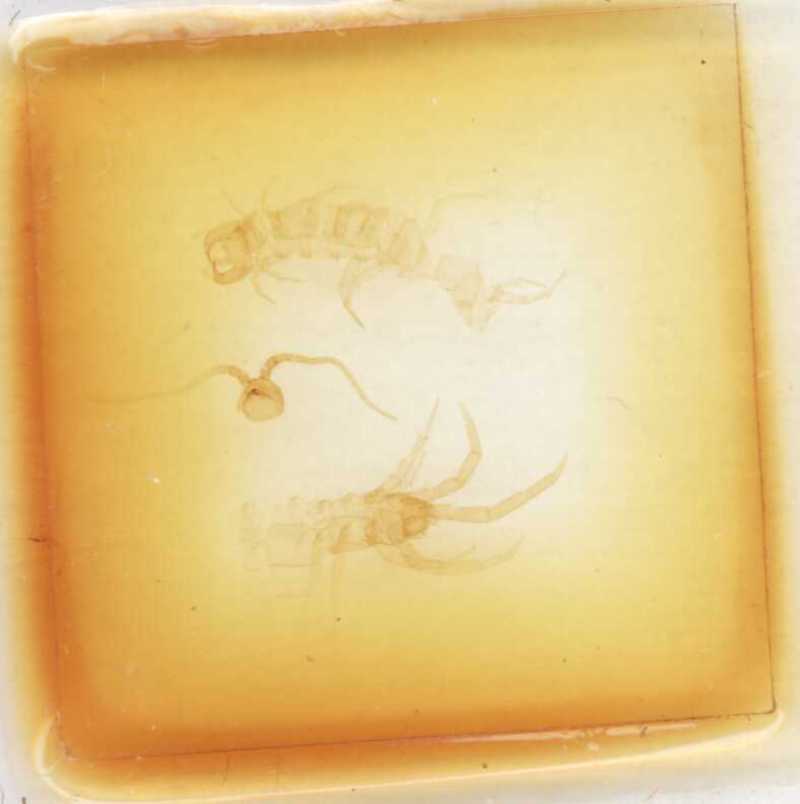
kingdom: Animalia
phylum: Arthropoda
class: Chilopoda
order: Lithobiomorpha
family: Lithobiidae
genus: Lithobius
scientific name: Lithobius electrinus
